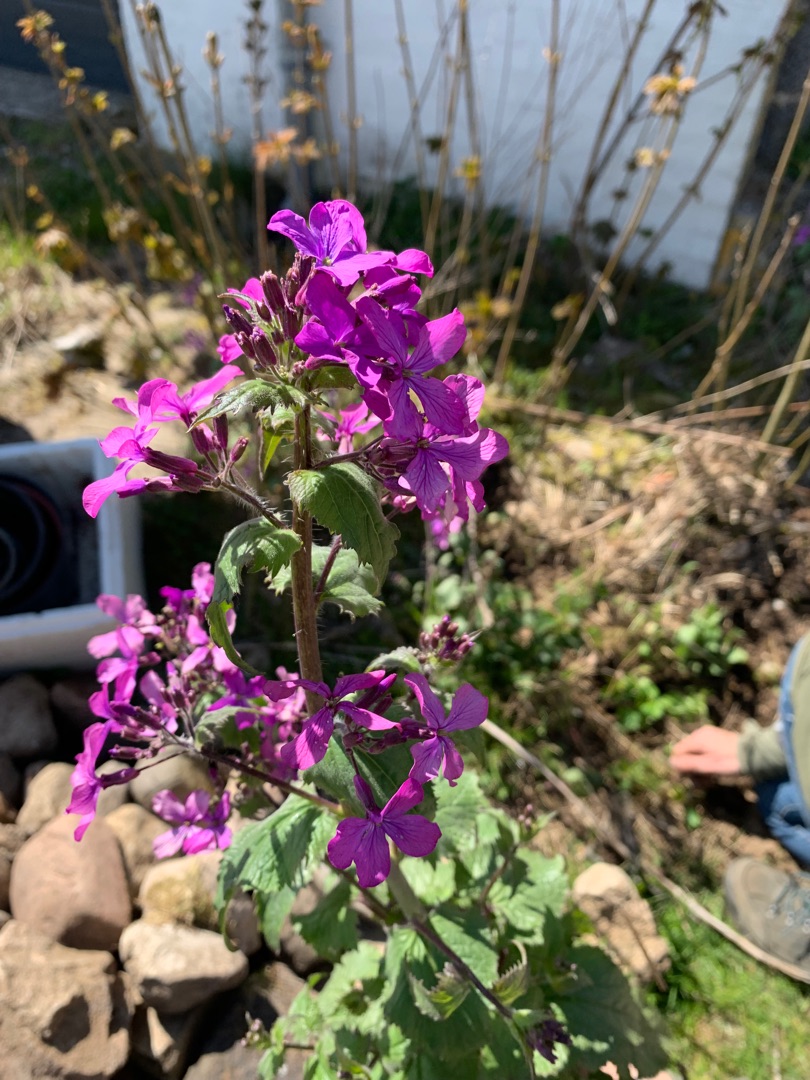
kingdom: Plantae
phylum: Tracheophyta
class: Magnoliopsida
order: Brassicales
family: Brassicaceae
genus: Lunaria
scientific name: Lunaria annua
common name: Judaspenge
